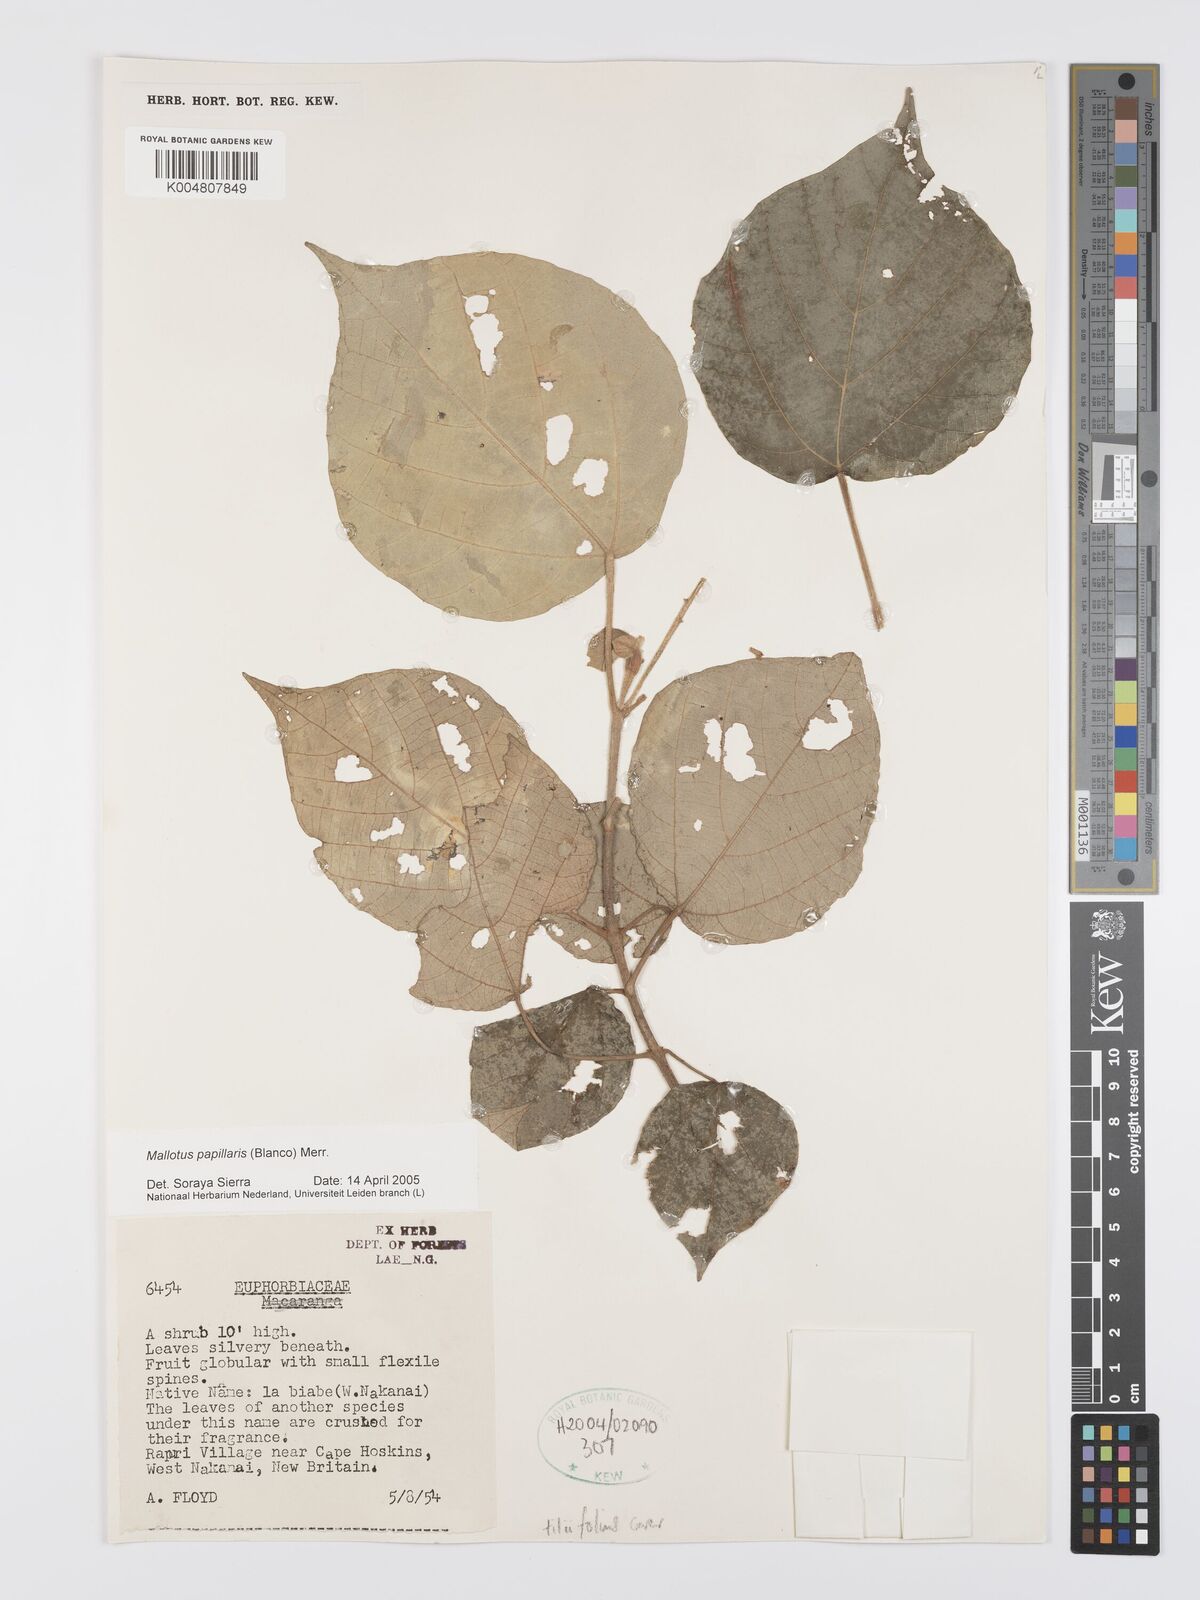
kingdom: Plantae
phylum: Tracheophyta
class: Magnoliopsida
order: Malpighiales
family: Euphorbiaceae
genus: Mallotus
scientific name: Mallotus tiliifolius
